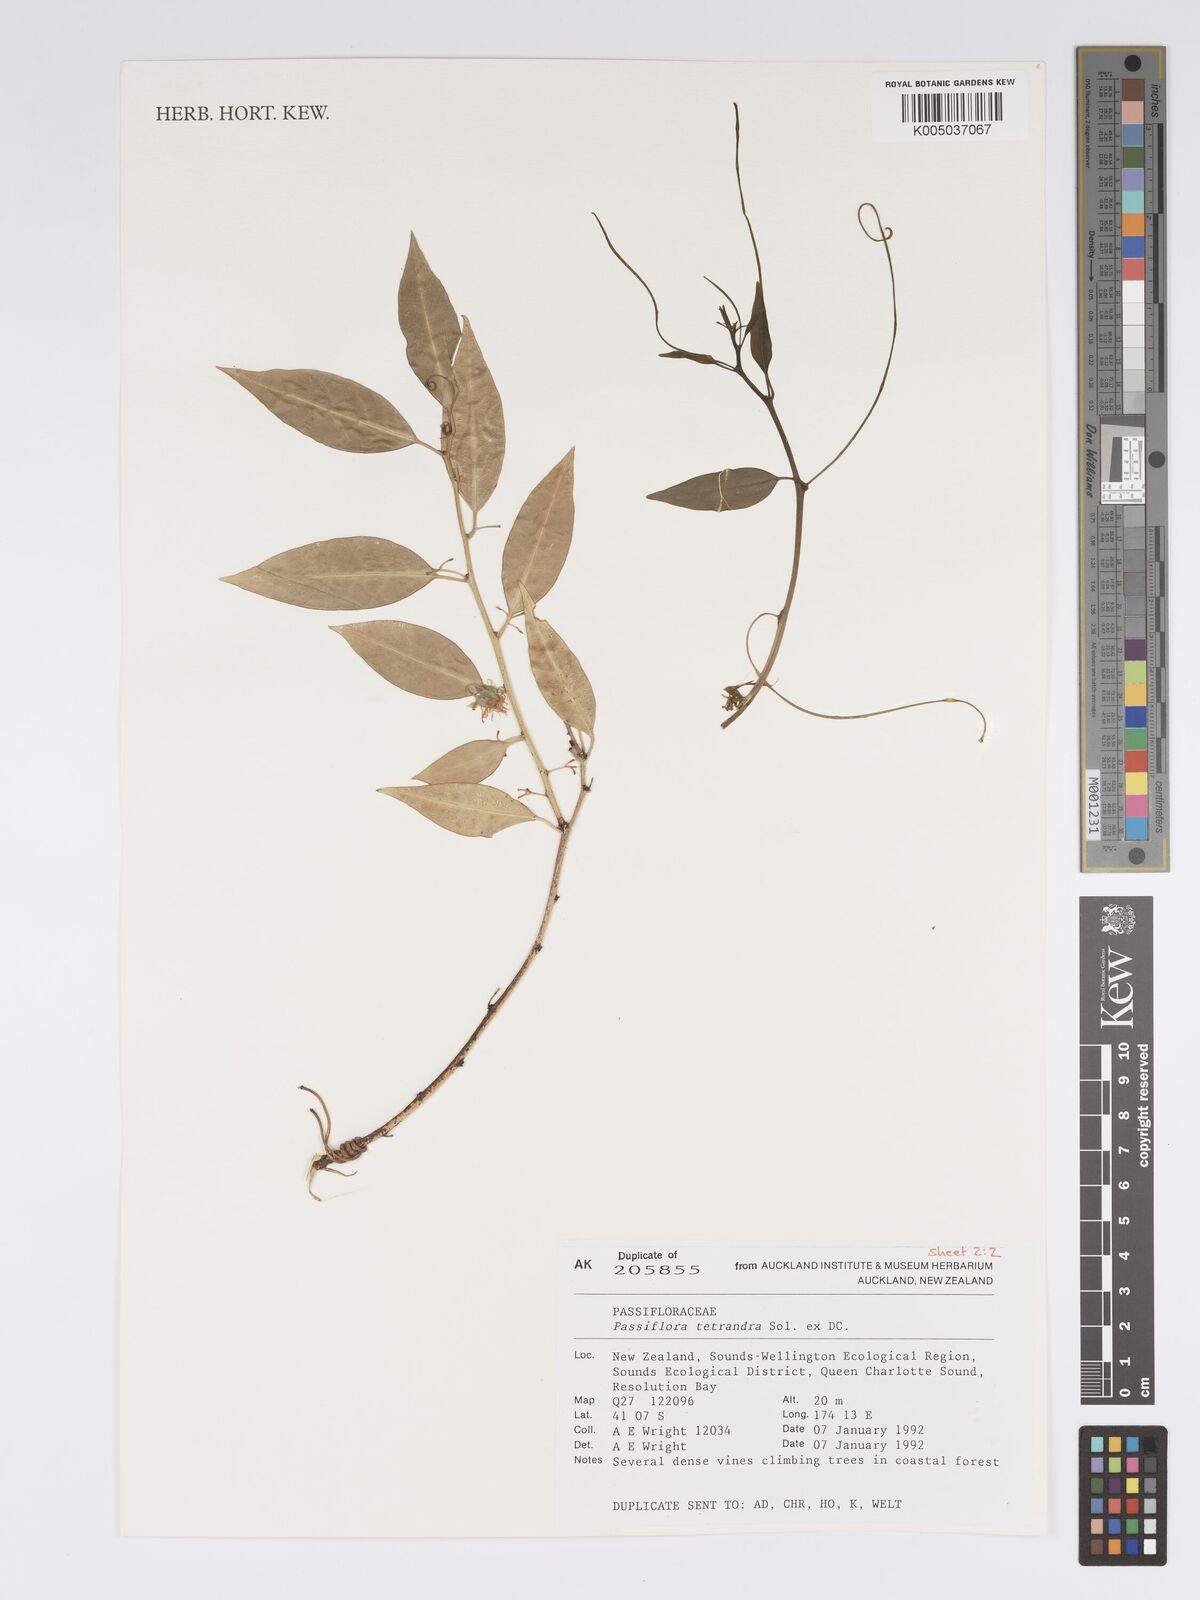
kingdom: Plantae
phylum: Tracheophyta
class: Magnoliopsida
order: Malpighiales
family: Passifloraceae
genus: Passiflora
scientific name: Passiflora tetrandra
